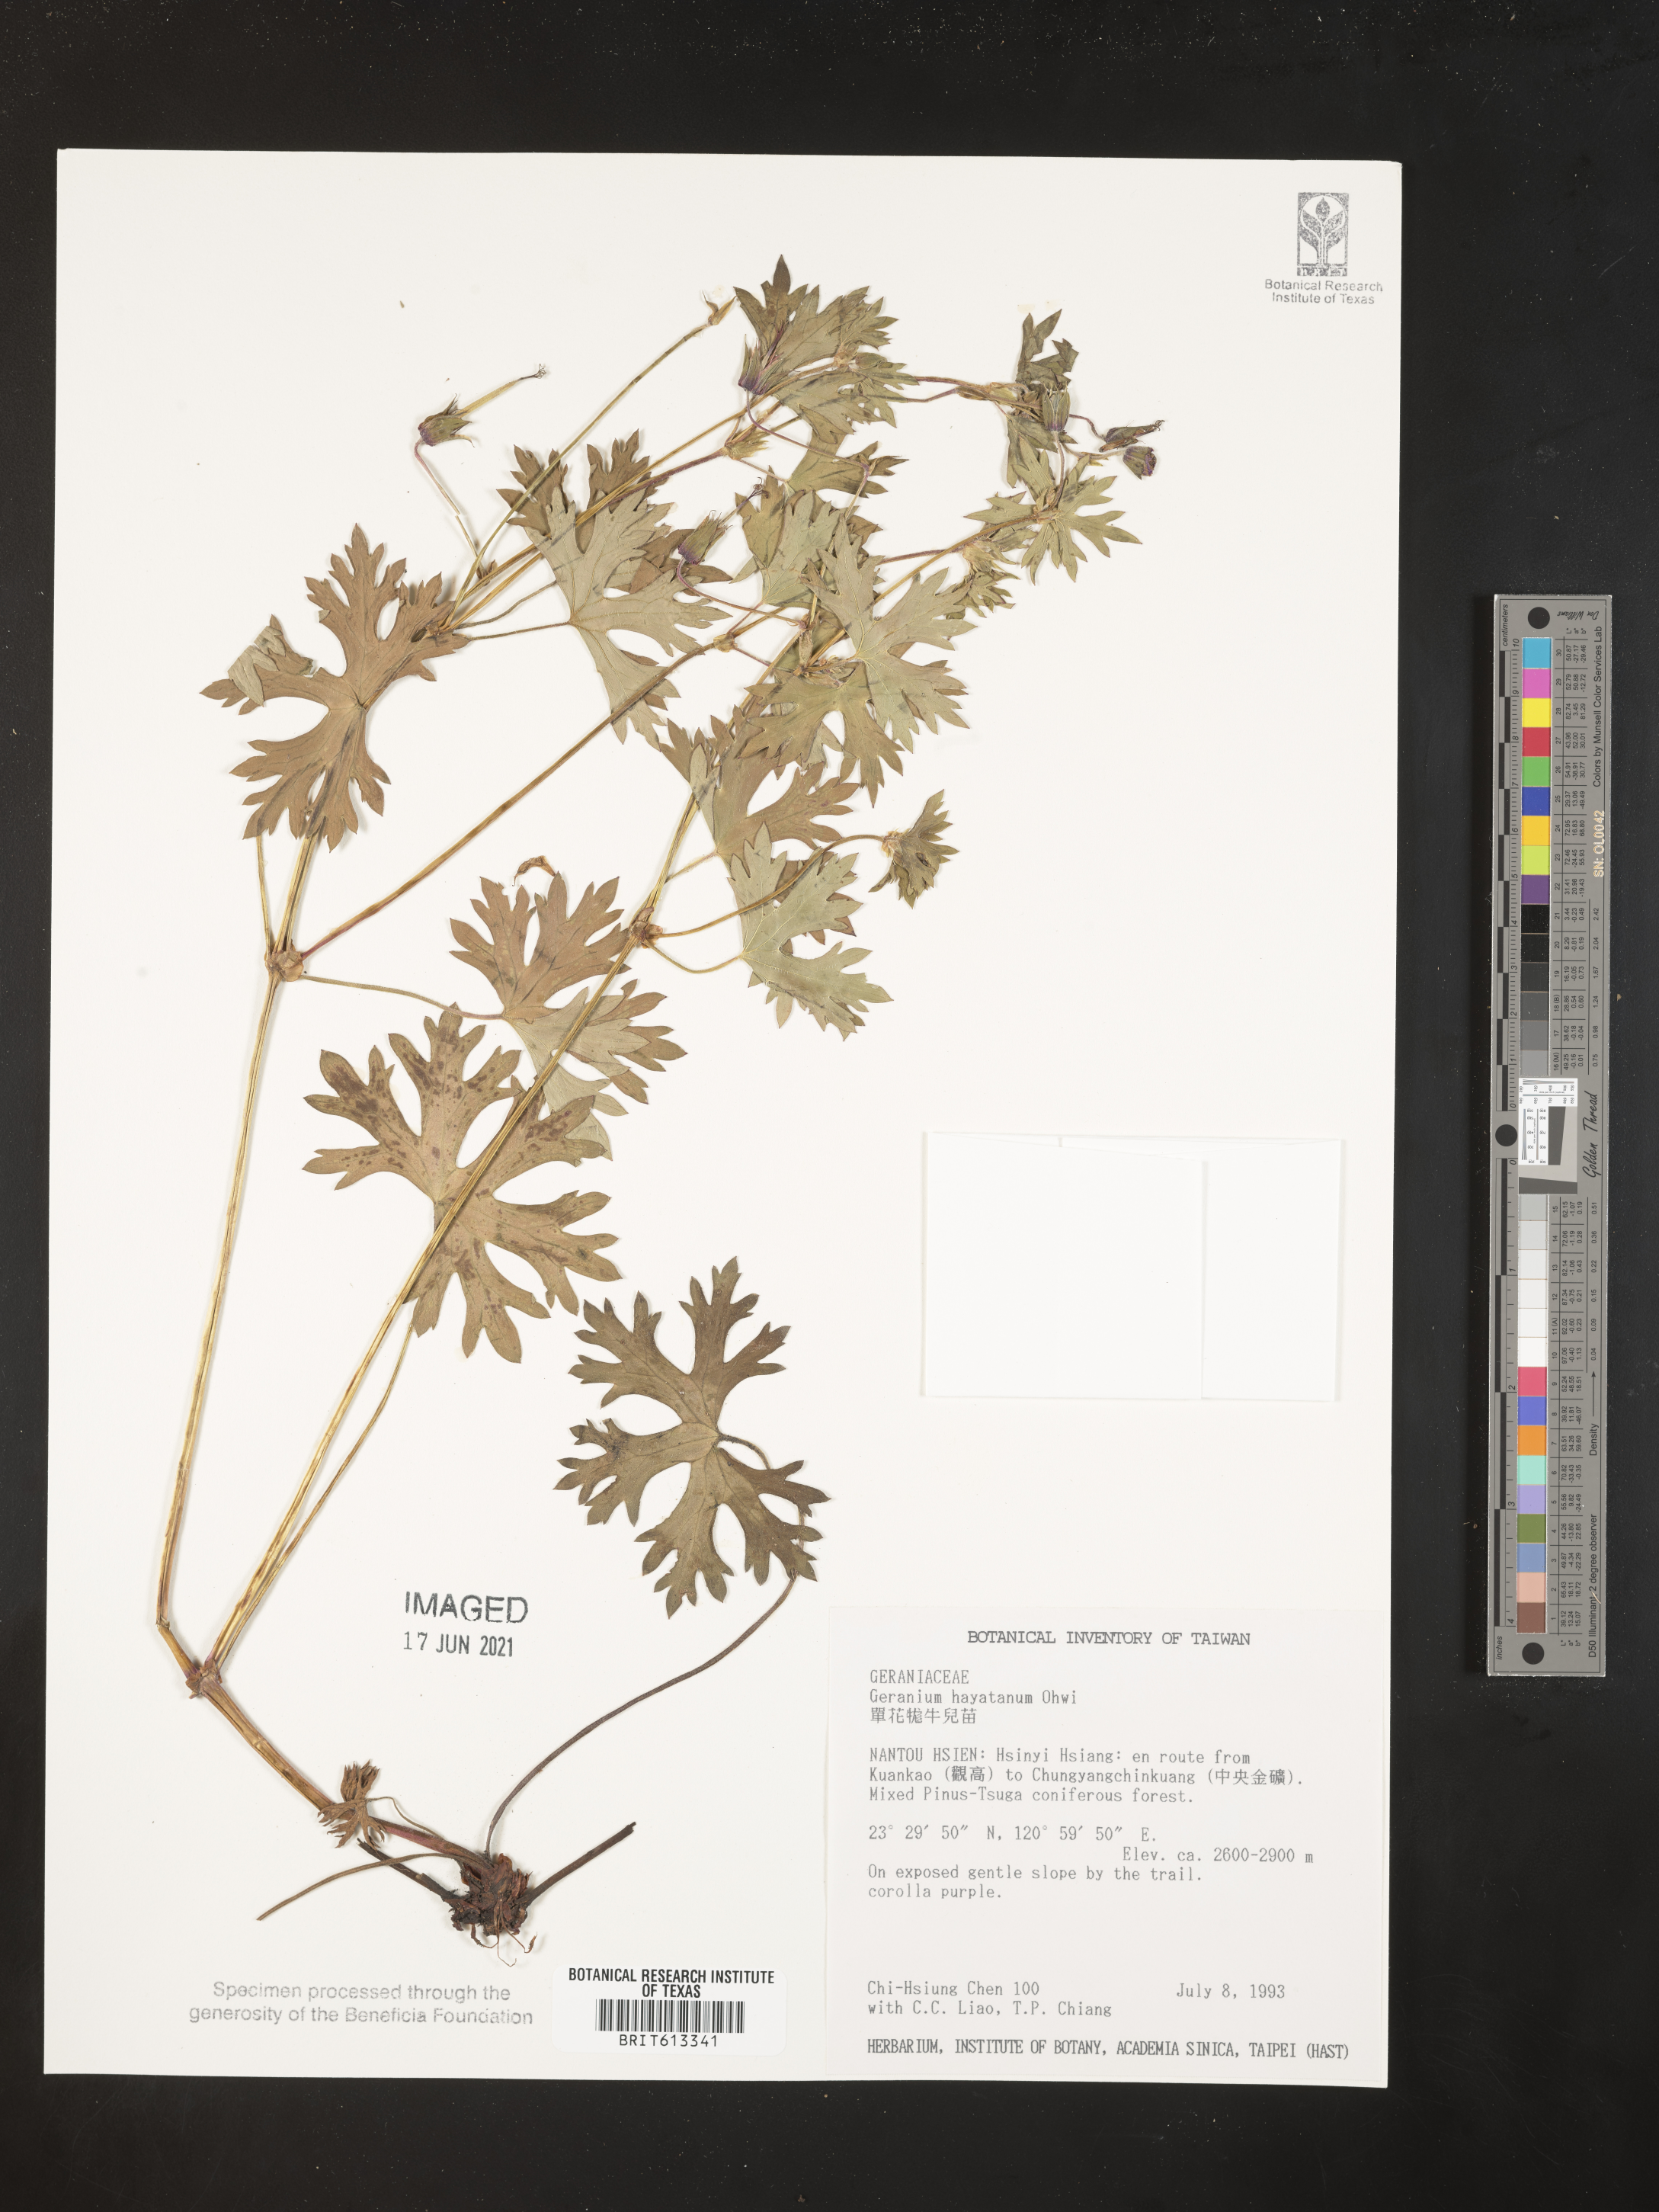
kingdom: Plantae
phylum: Tracheophyta
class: Magnoliopsida
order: Geraniales
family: Geraniaceae
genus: Geranium
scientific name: Geranium hayatanum
